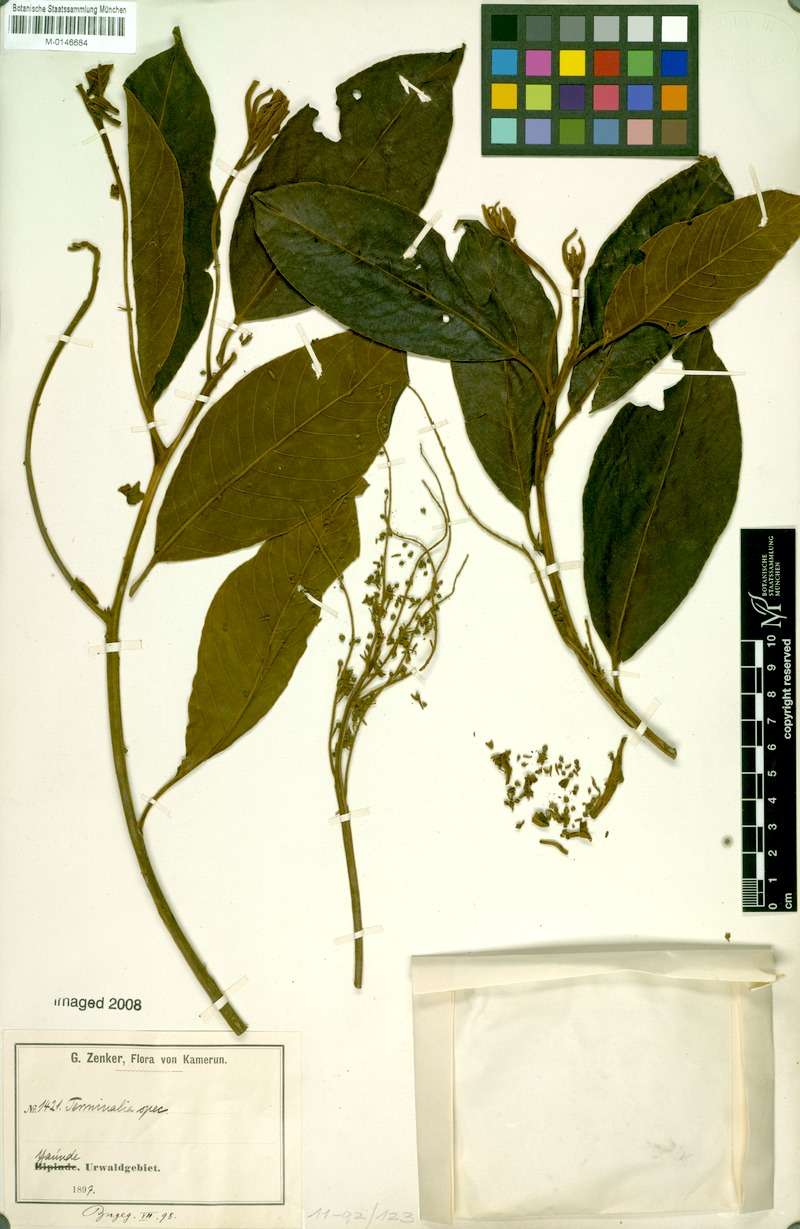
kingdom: Plantae
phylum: Tracheophyta
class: Magnoliopsida
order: Myrtales
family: Combretaceae
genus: Terminalia
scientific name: Terminalia
